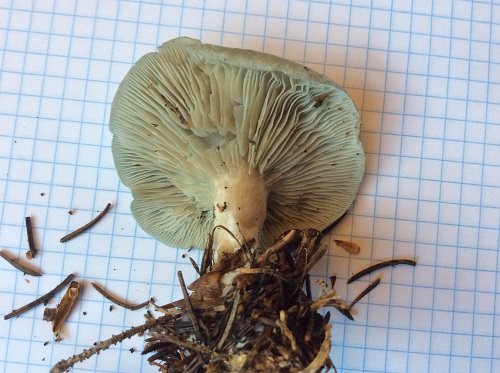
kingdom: Fungi
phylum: Basidiomycota
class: Agaricomycetes
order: Agaricales
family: Tricholomataceae
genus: Clitocybe
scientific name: Clitocybe odora
